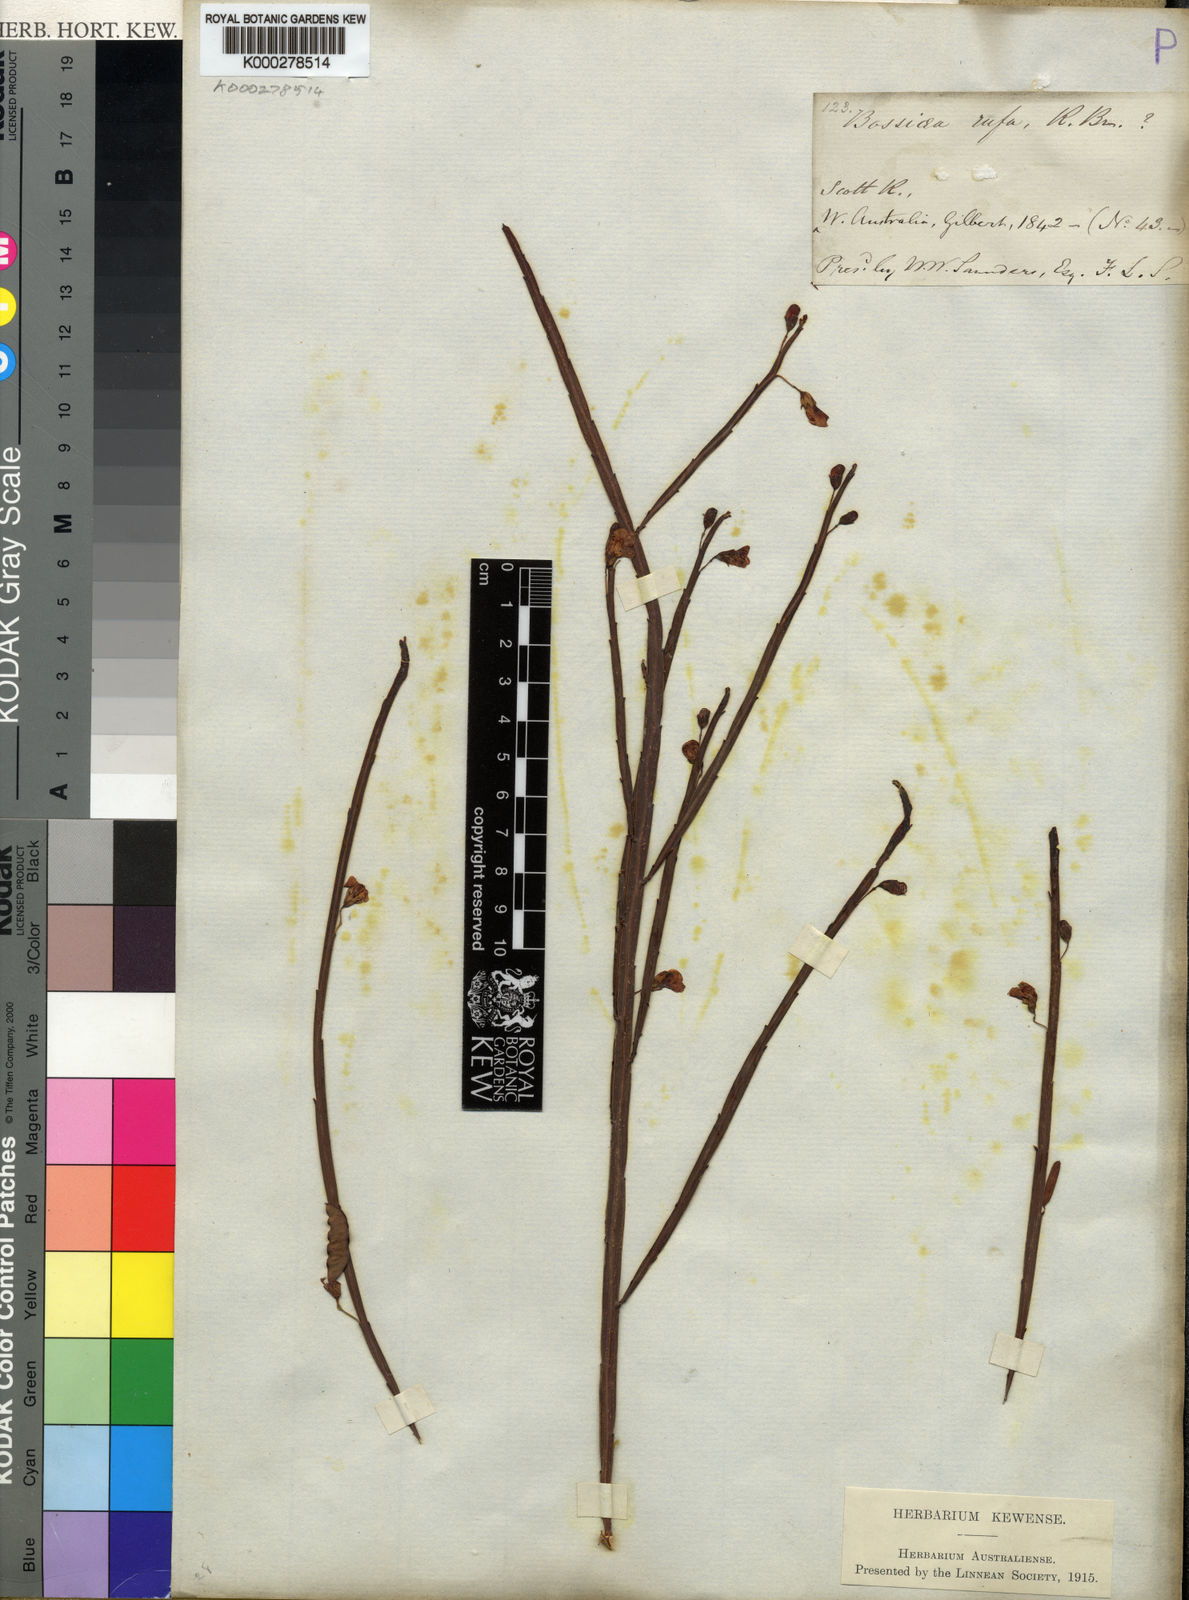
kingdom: Plantae
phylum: Tracheophyta
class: Magnoliopsida
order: Fabales
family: Fabaceae
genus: Bossiaea
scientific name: Bossiaea rufa
